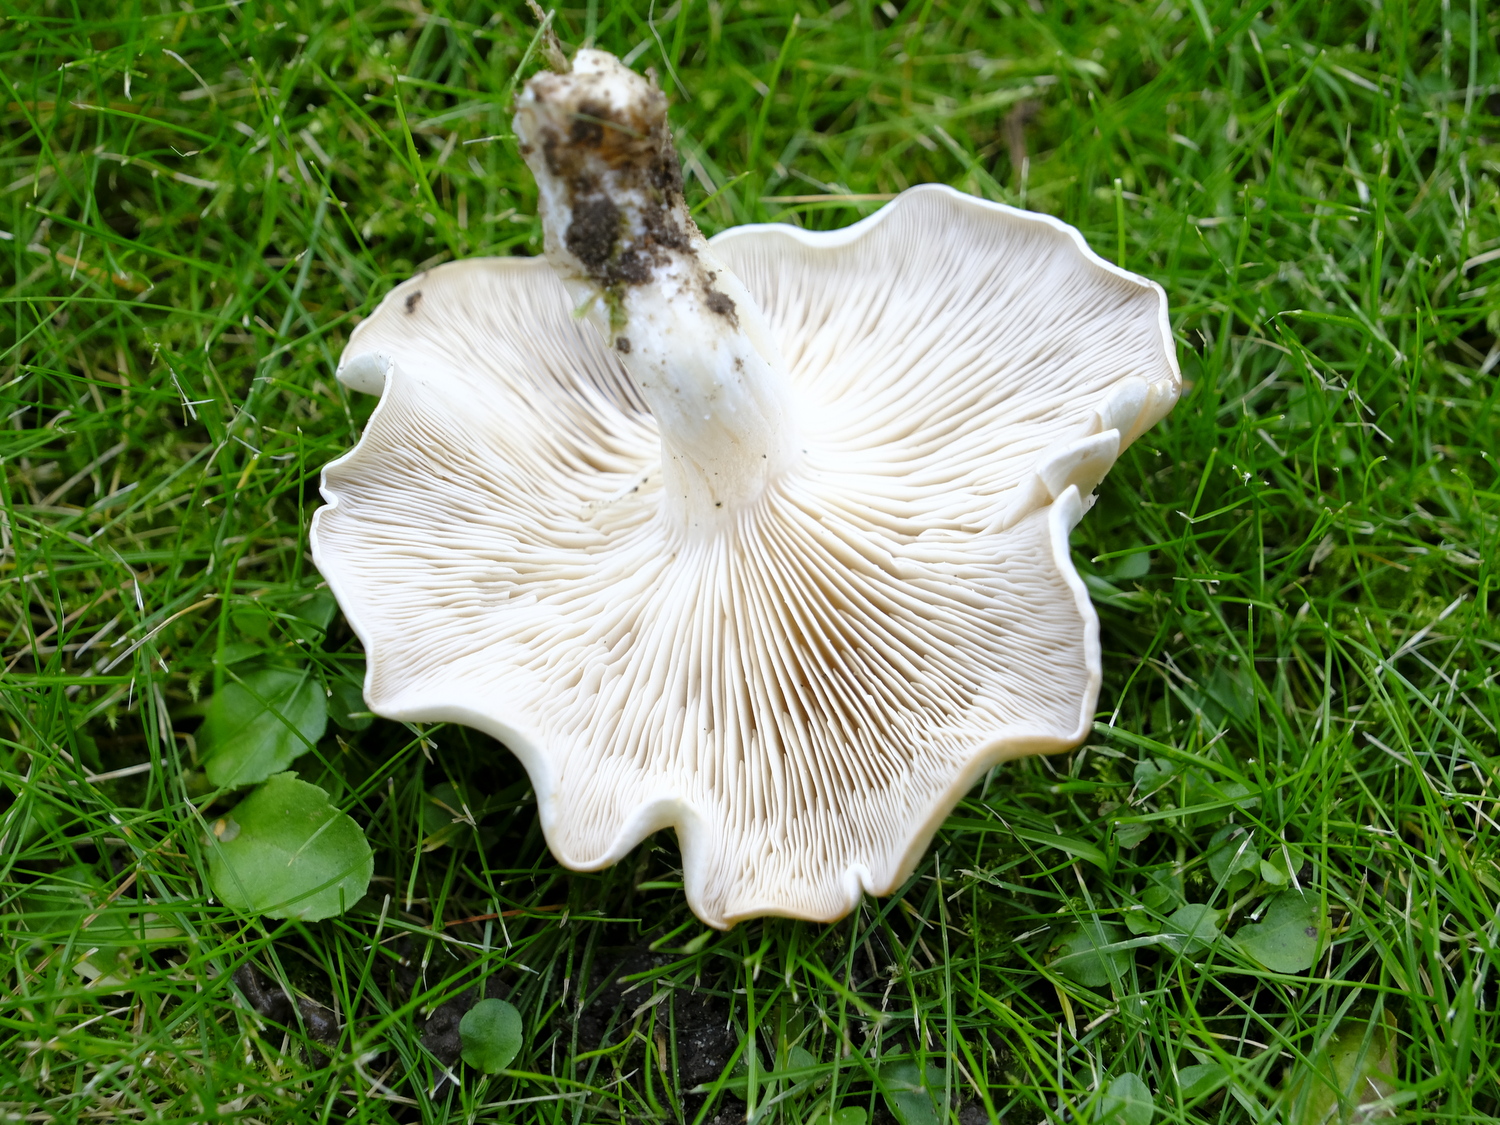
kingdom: Fungi
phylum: Basidiomycota
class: Agaricomycetes
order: Agaricales
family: Tricholomataceae
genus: Leucocybe
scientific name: Leucocybe connata
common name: knippe-tragthat
